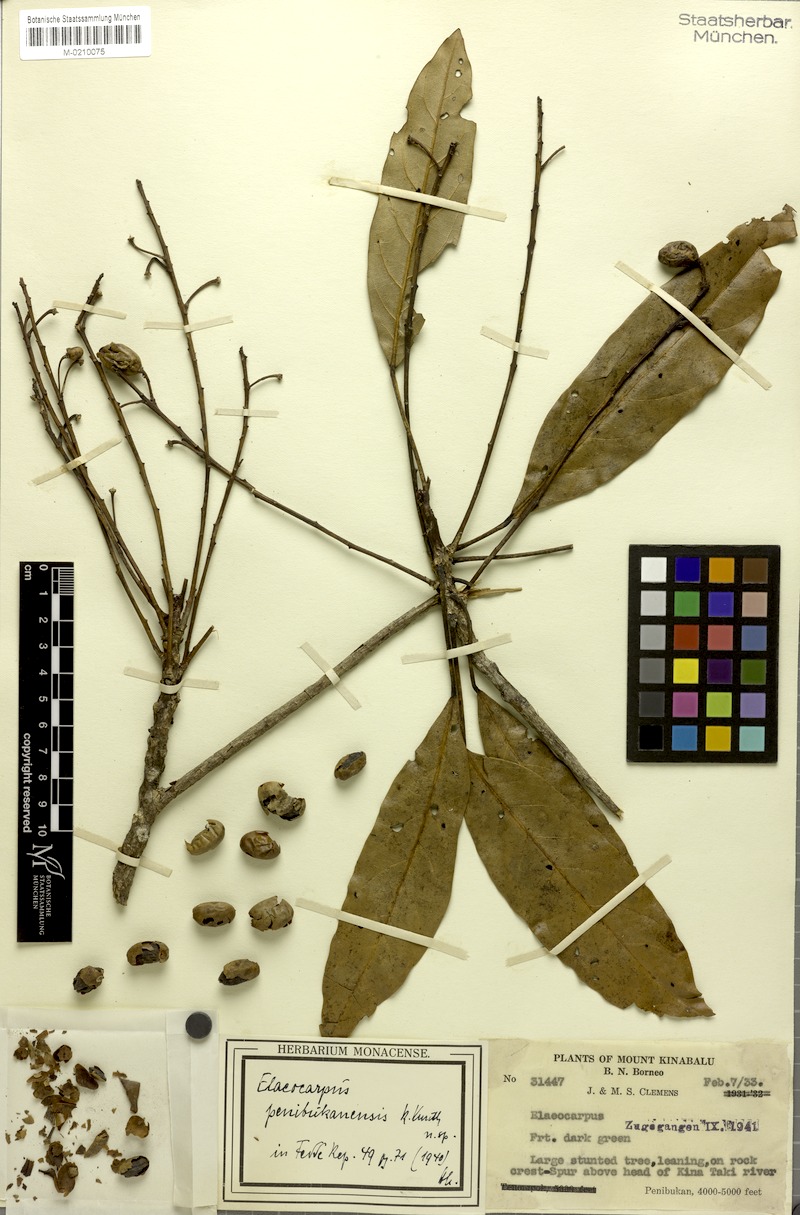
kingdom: Plantae
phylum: Tracheophyta
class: Magnoliopsida
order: Oxalidales
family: Elaeocarpaceae
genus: Elaeocarpus
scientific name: Elaeocarpus sadikanensis
